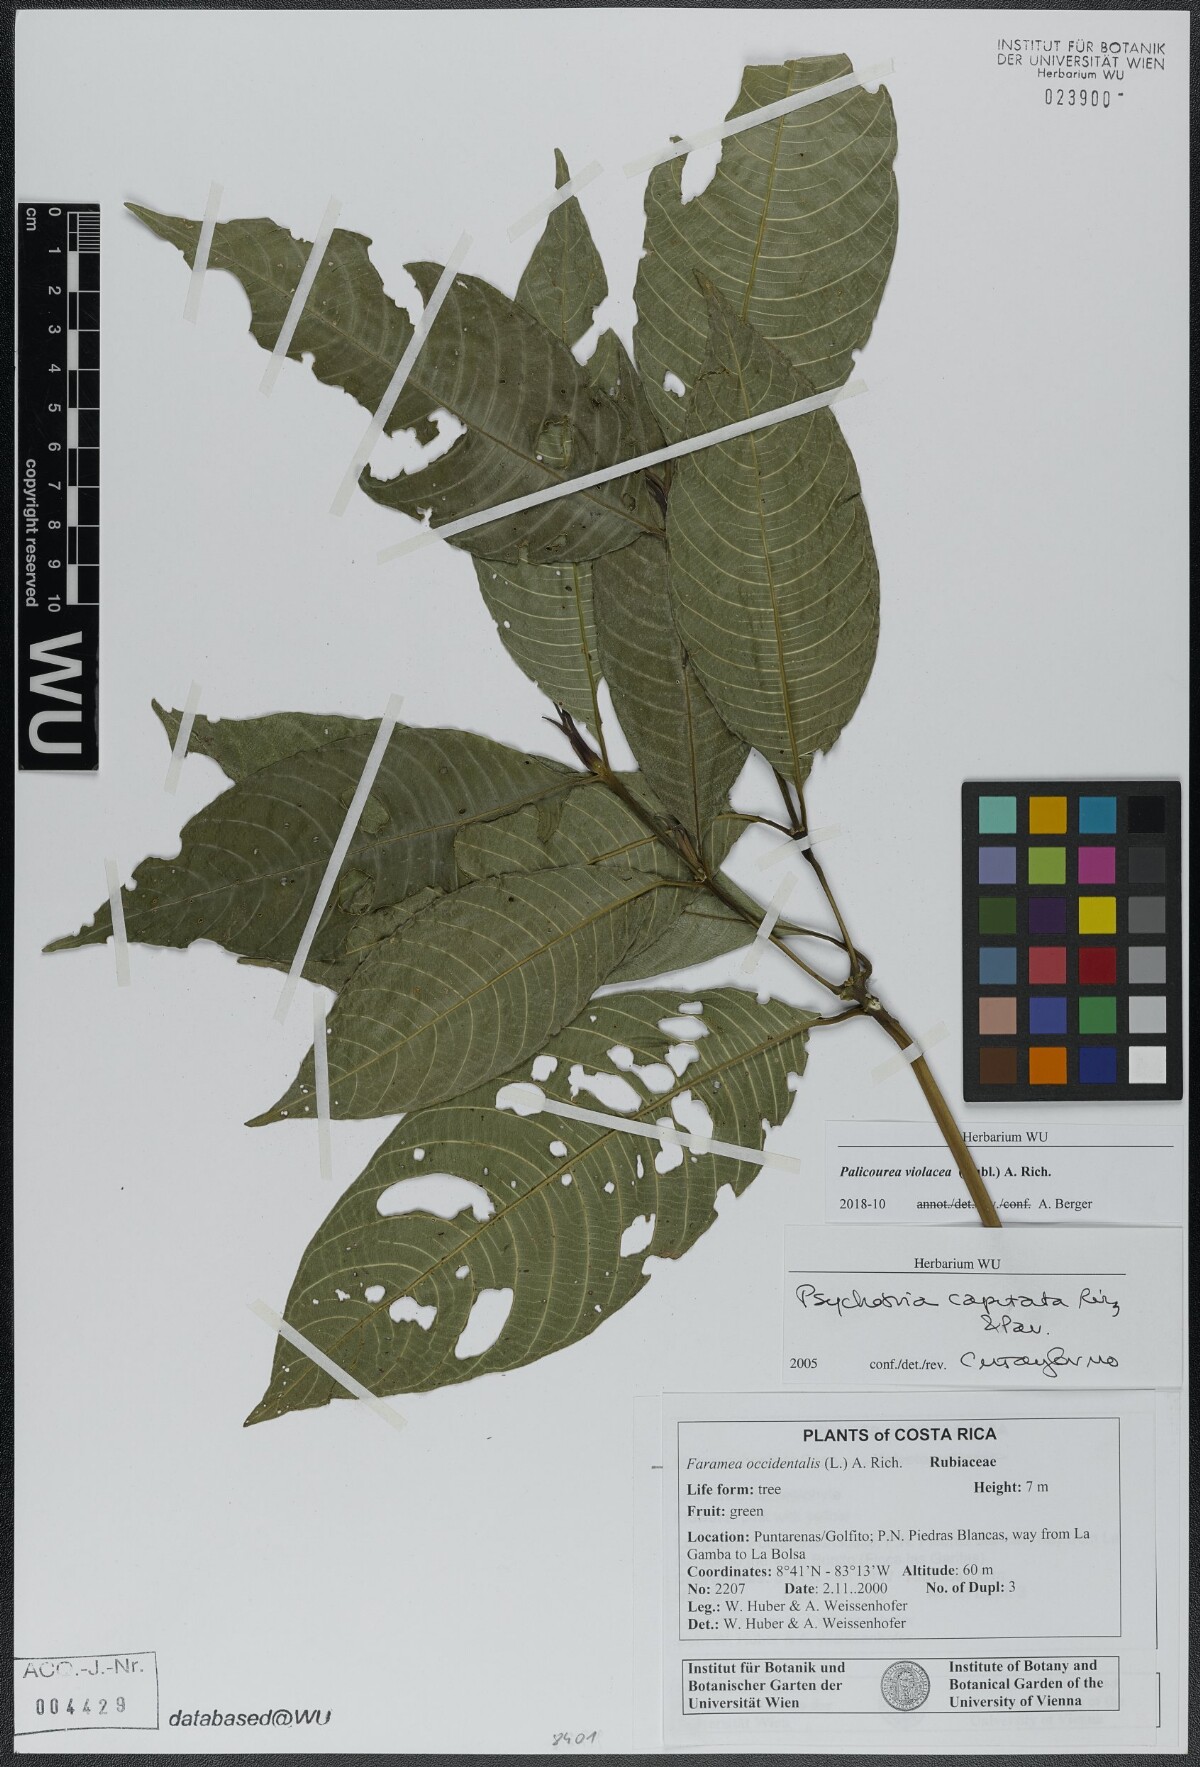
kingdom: Plantae
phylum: Tracheophyta
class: Magnoliopsida
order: Gentianales
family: Rubiaceae
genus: Palicourea
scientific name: Palicourea violacea
